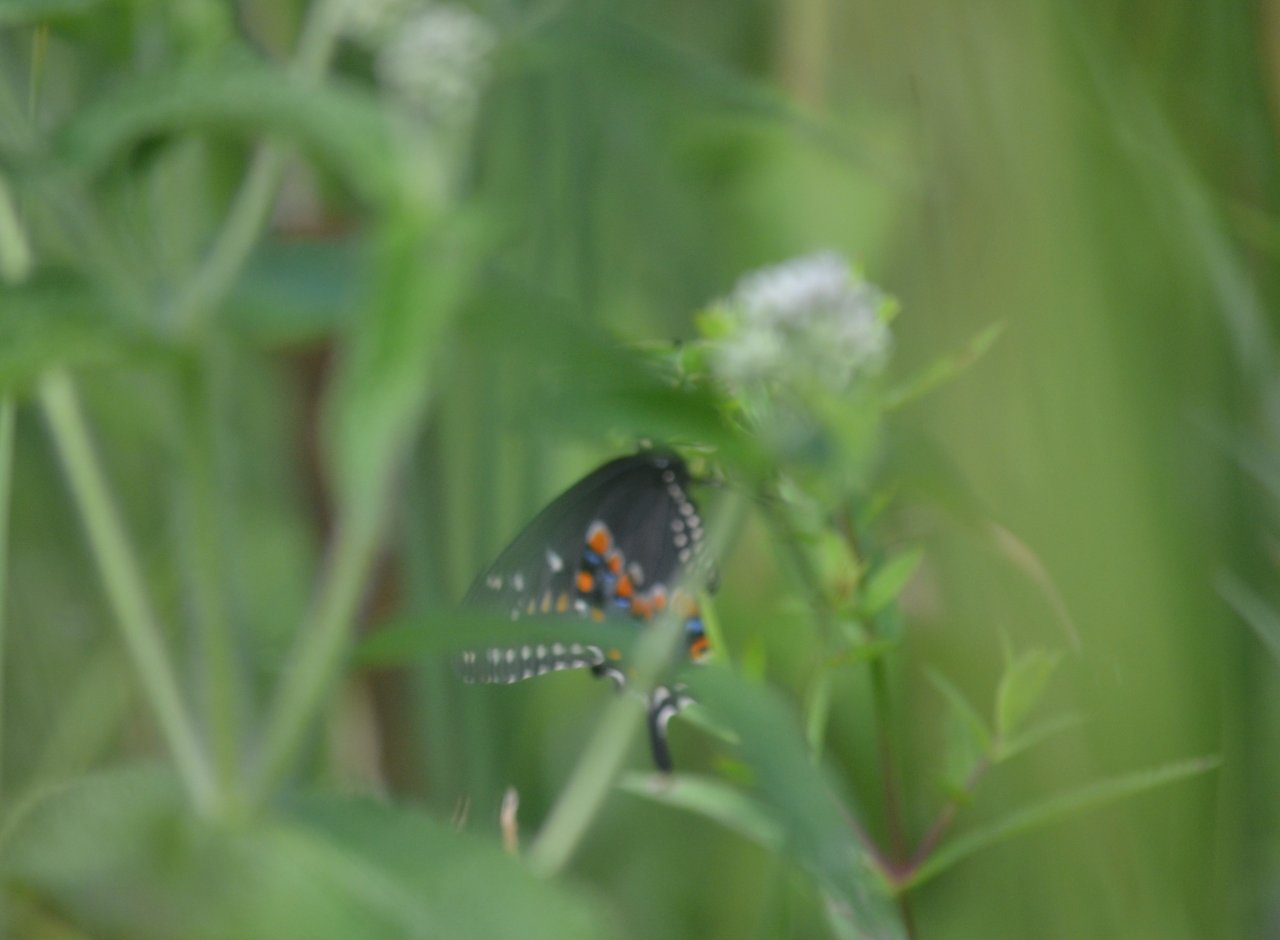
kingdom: Animalia
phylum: Arthropoda
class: Insecta
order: Lepidoptera
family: Papilionidae
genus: Papilio
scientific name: Papilio polyxenes
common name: Black Swallowtail
